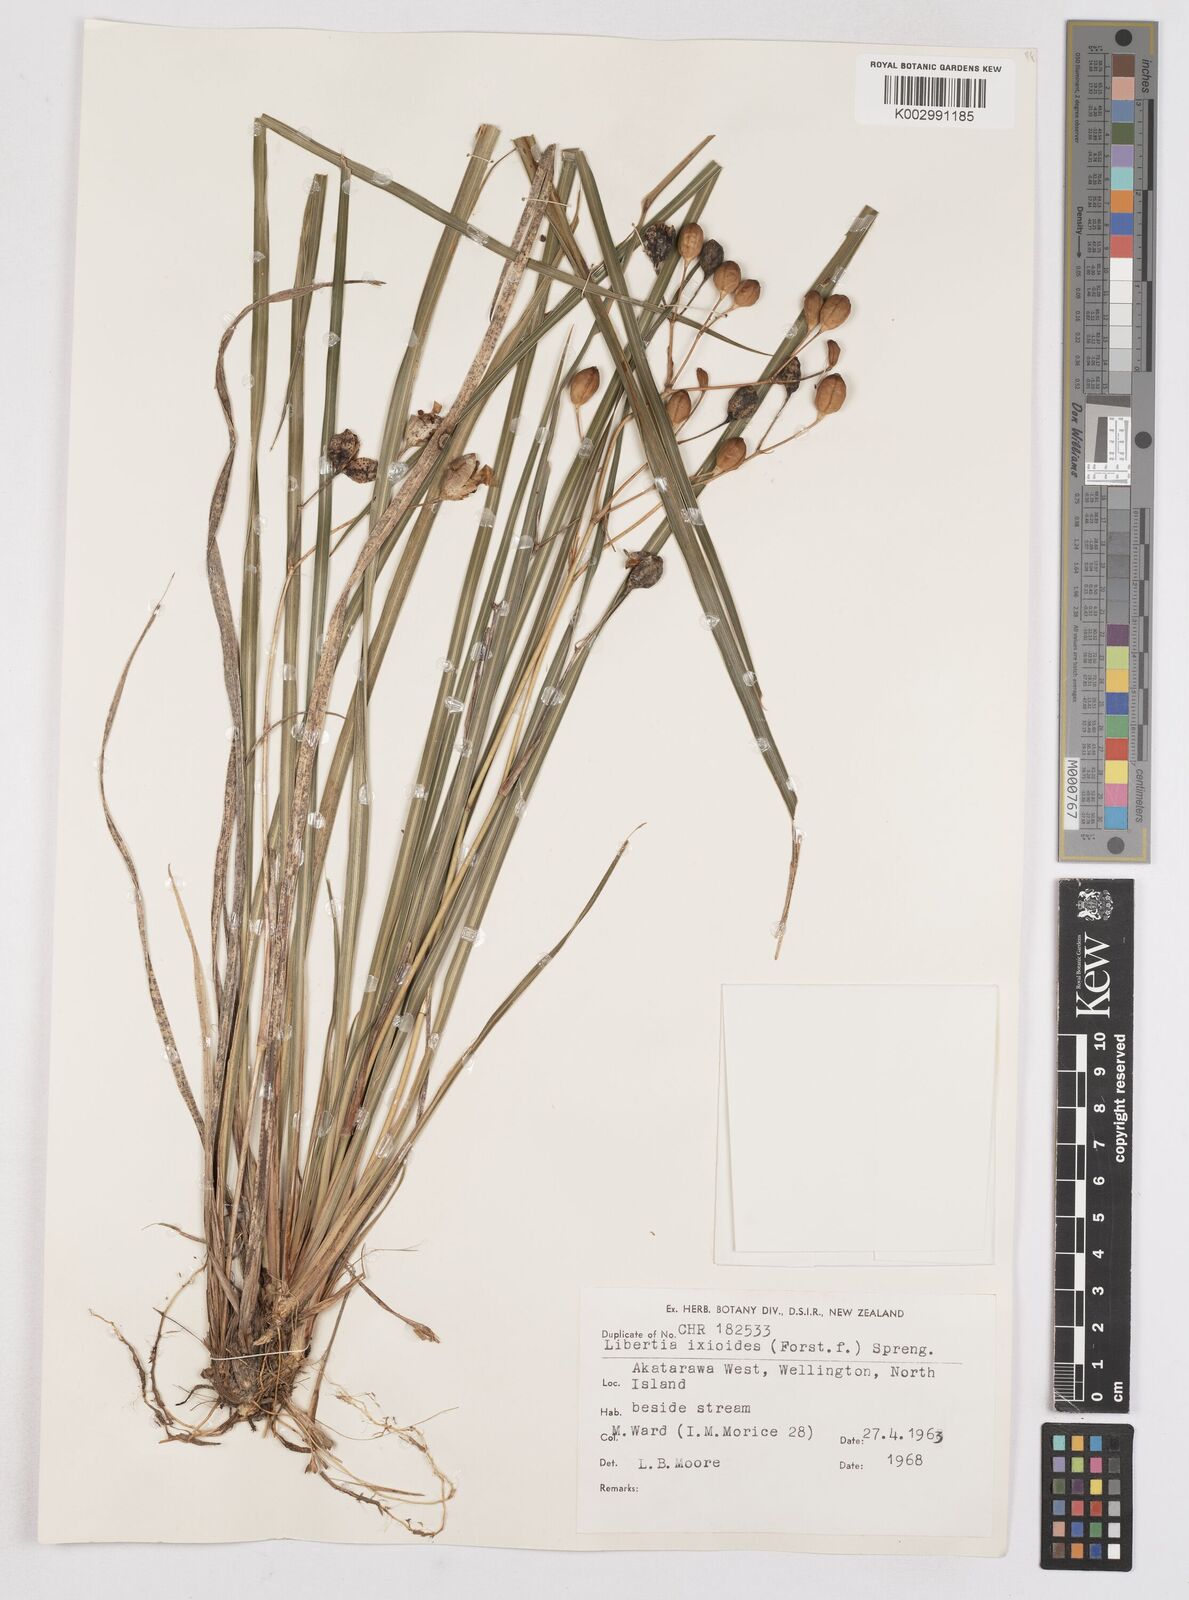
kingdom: Plantae
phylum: Tracheophyta
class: Liliopsida
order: Asparagales
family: Iridaceae
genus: Libertia
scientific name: Libertia ixioides
